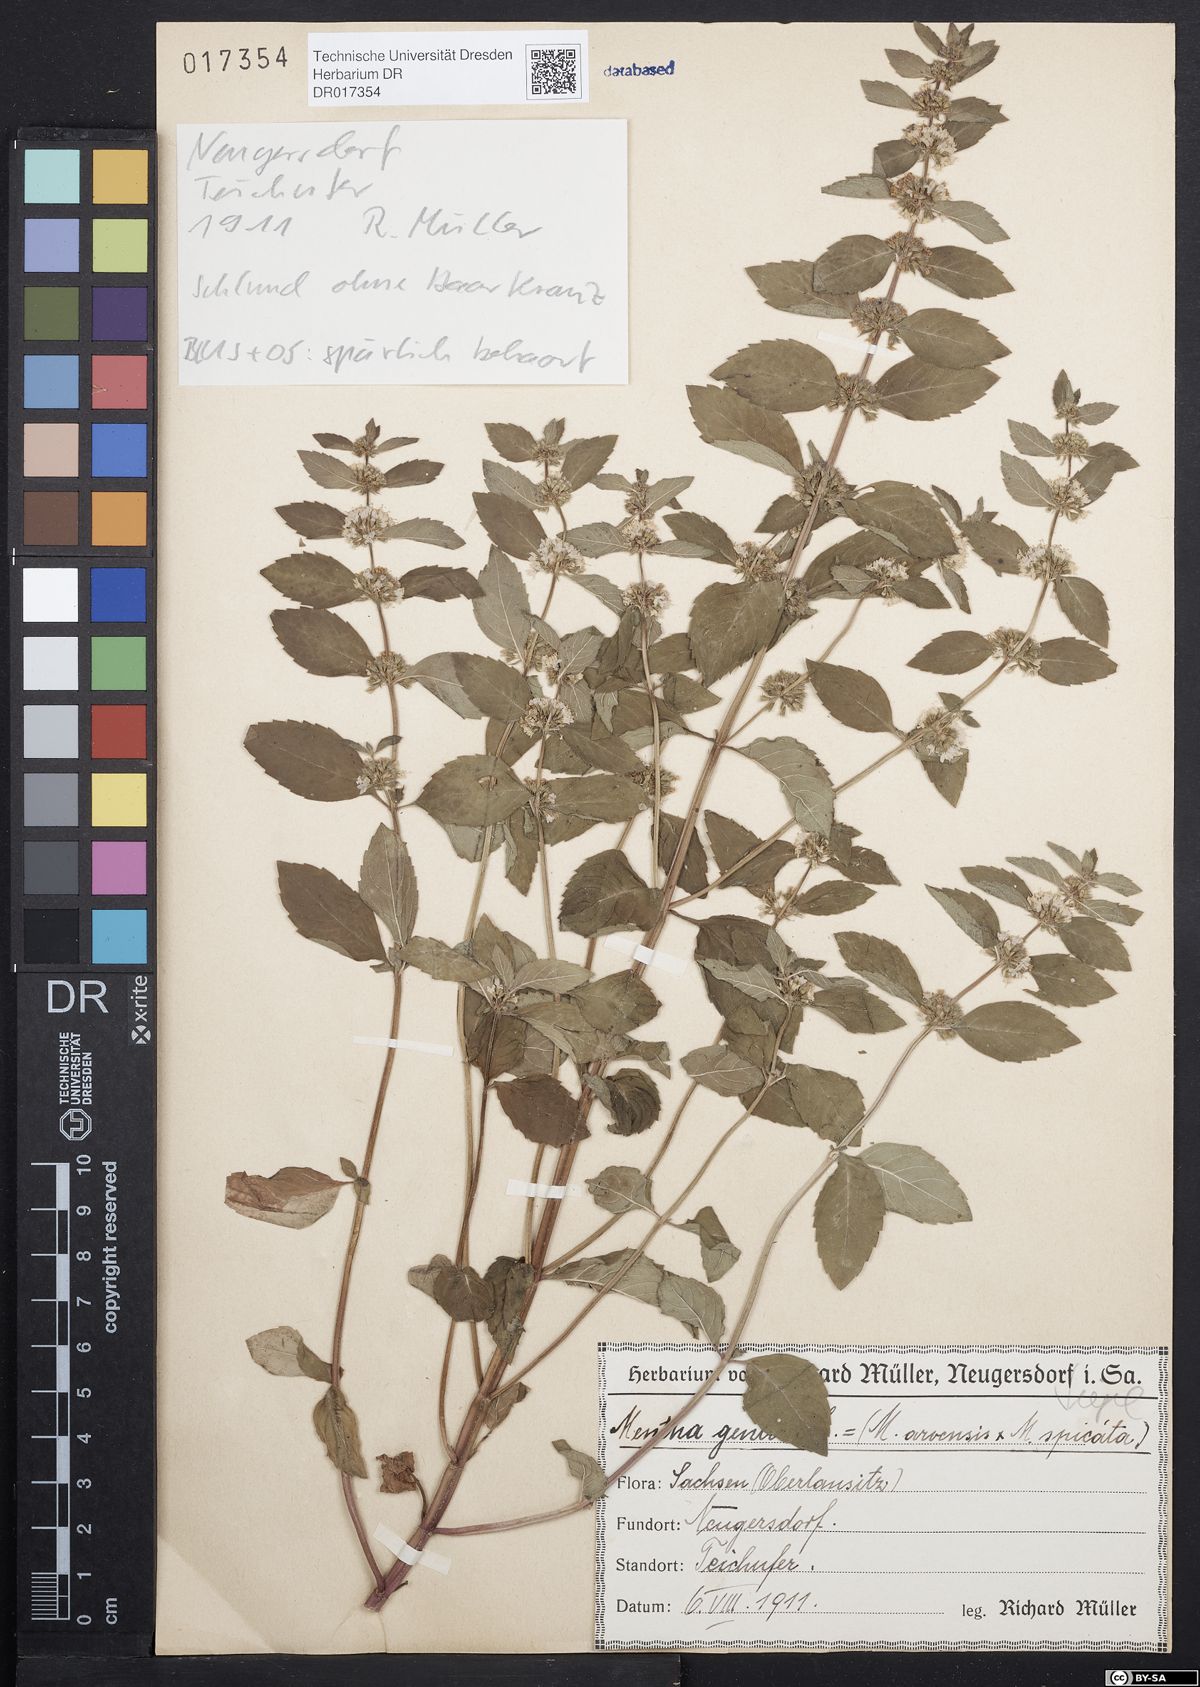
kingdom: Plantae
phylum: Tracheophyta
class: Magnoliopsida
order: Lamiales
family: Lamiaceae
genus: Mentha
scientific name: Mentha gracilis
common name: Bushy mint
